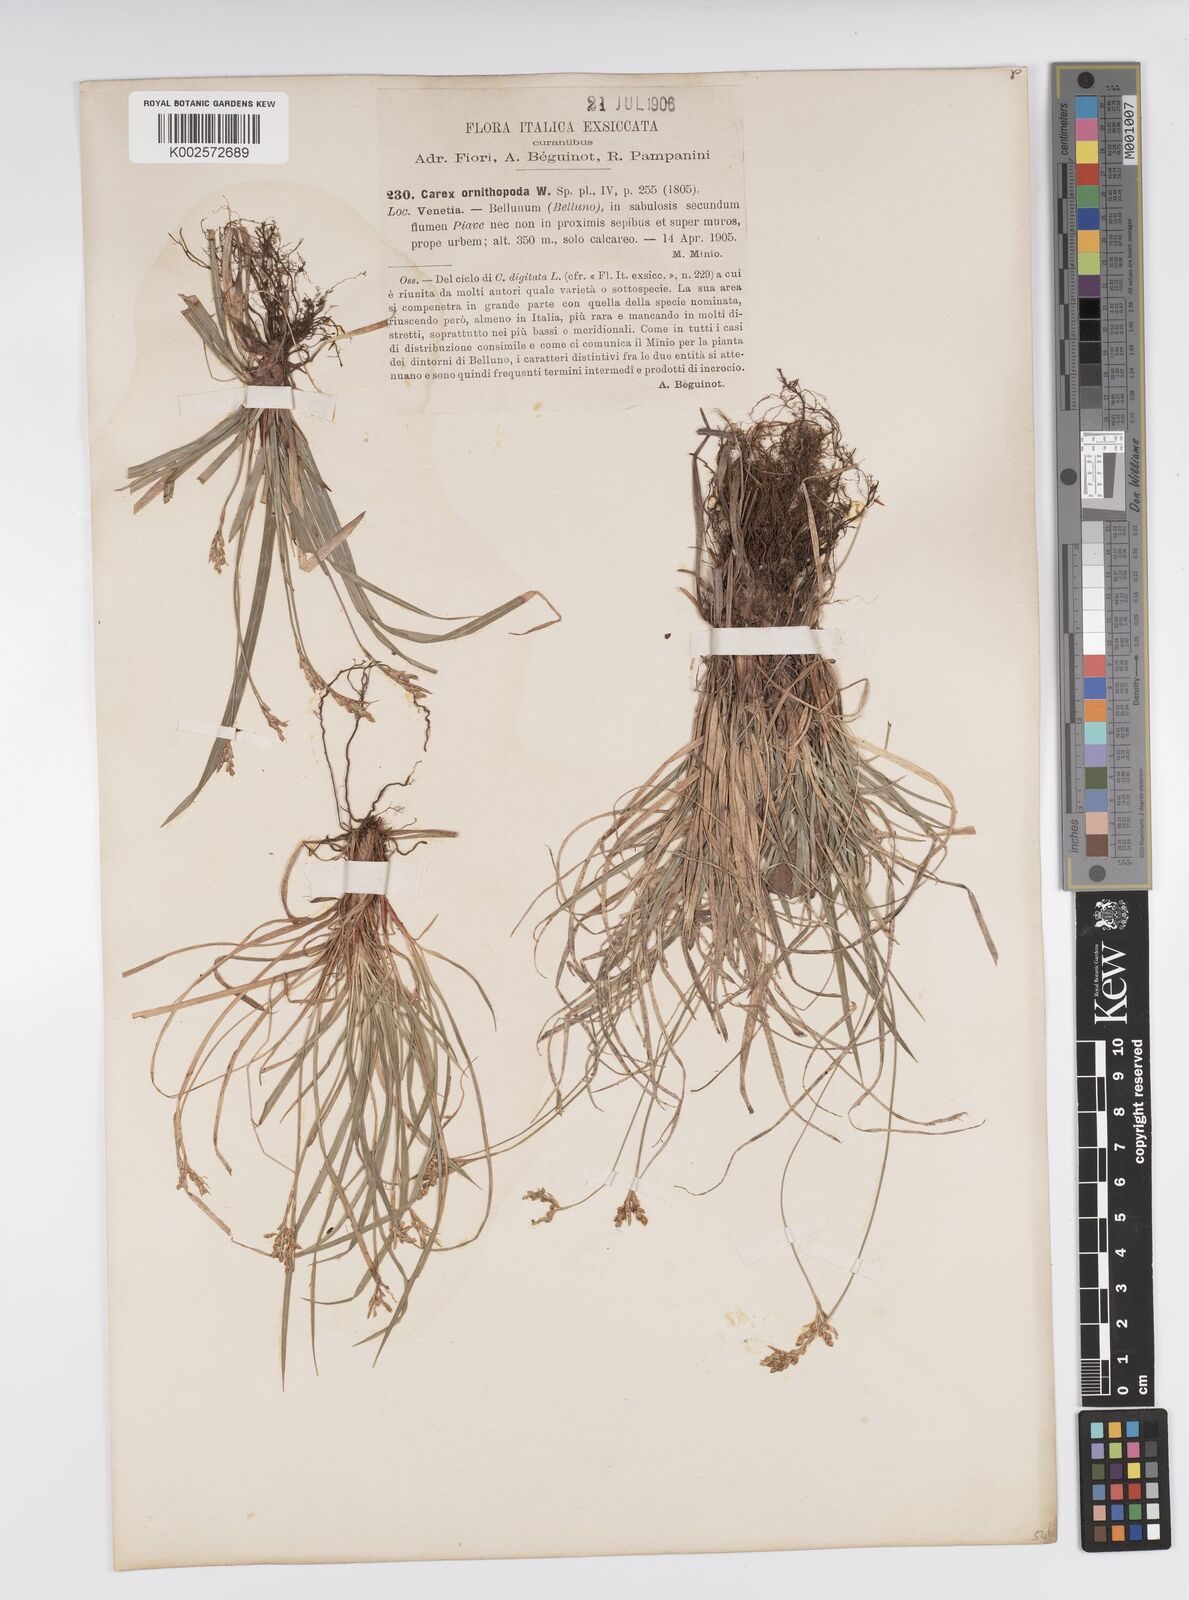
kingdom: Plantae
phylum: Tracheophyta
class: Liliopsida
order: Poales
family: Cyperaceae
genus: Carex
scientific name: Carex ornithopoda
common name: Bird's-foot sedge
